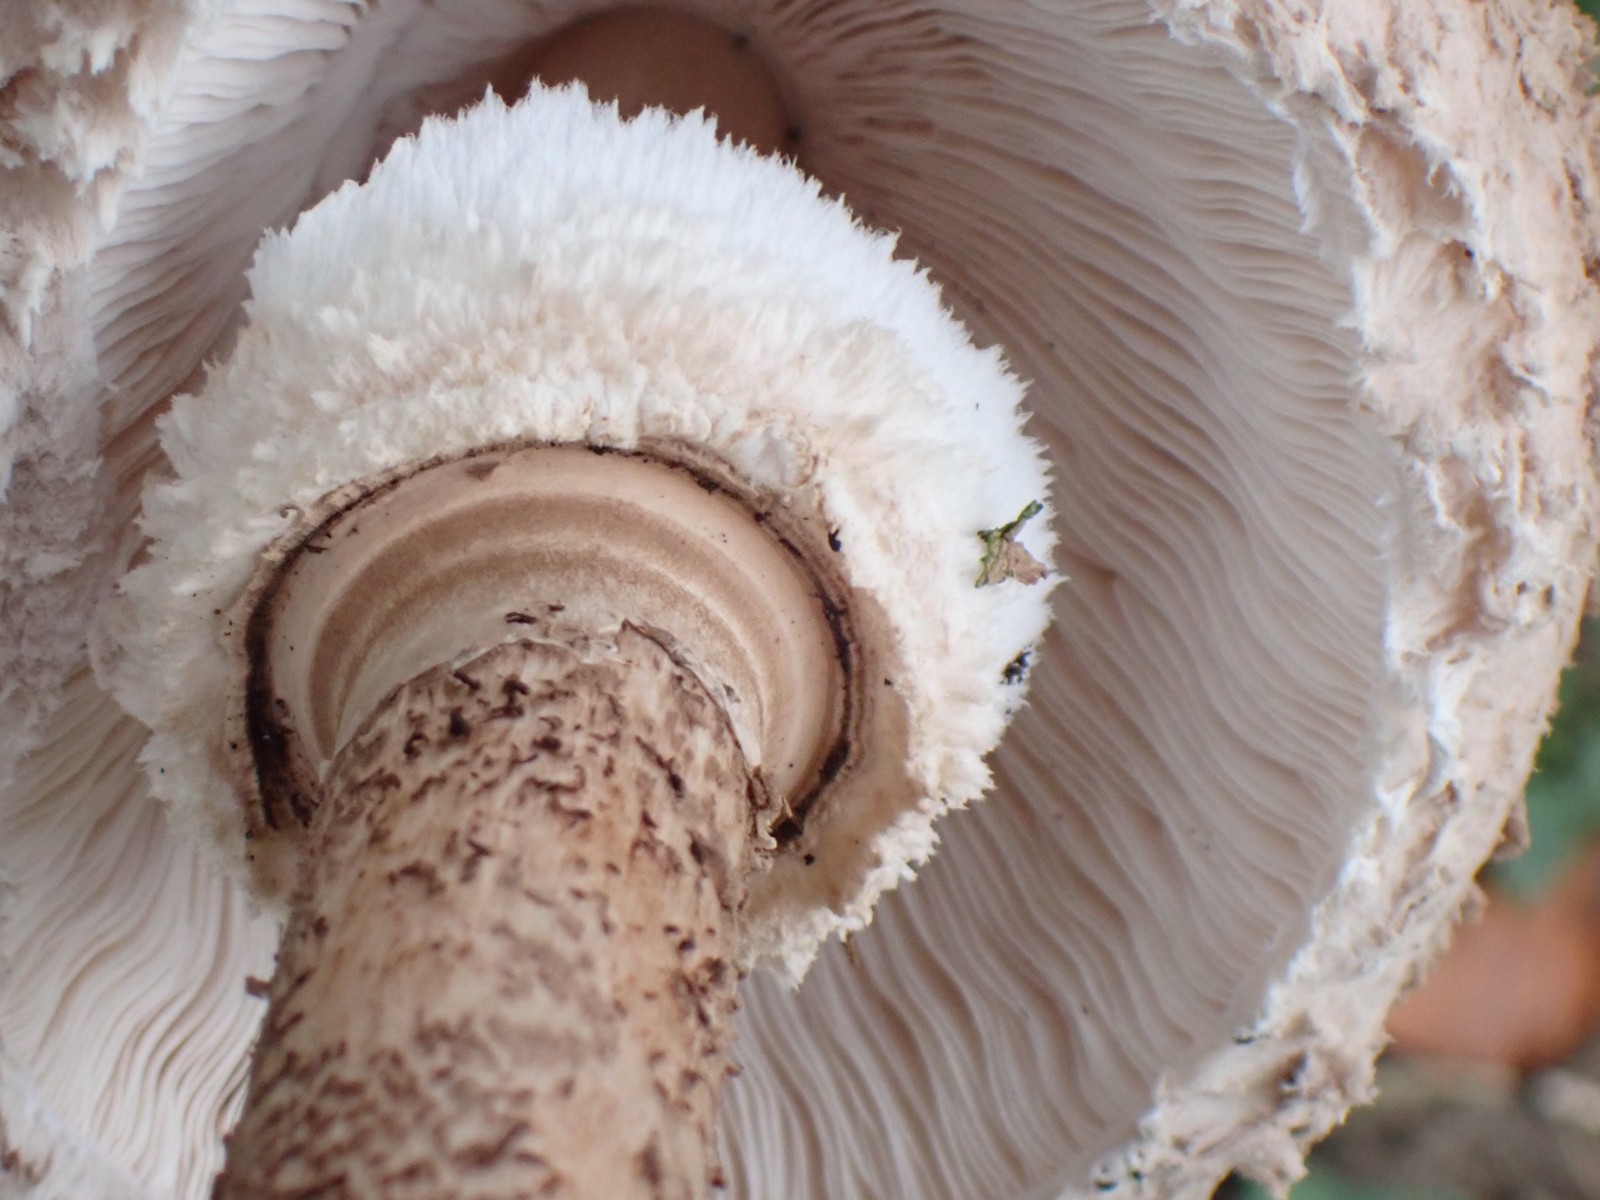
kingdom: Fungi
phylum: Basidiomycota
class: Agaricomycetes
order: Agaricales
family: Agaricaceae
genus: Macrolepiota
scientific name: Macrolepiota procera
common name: stor kæmpeparasolhat
